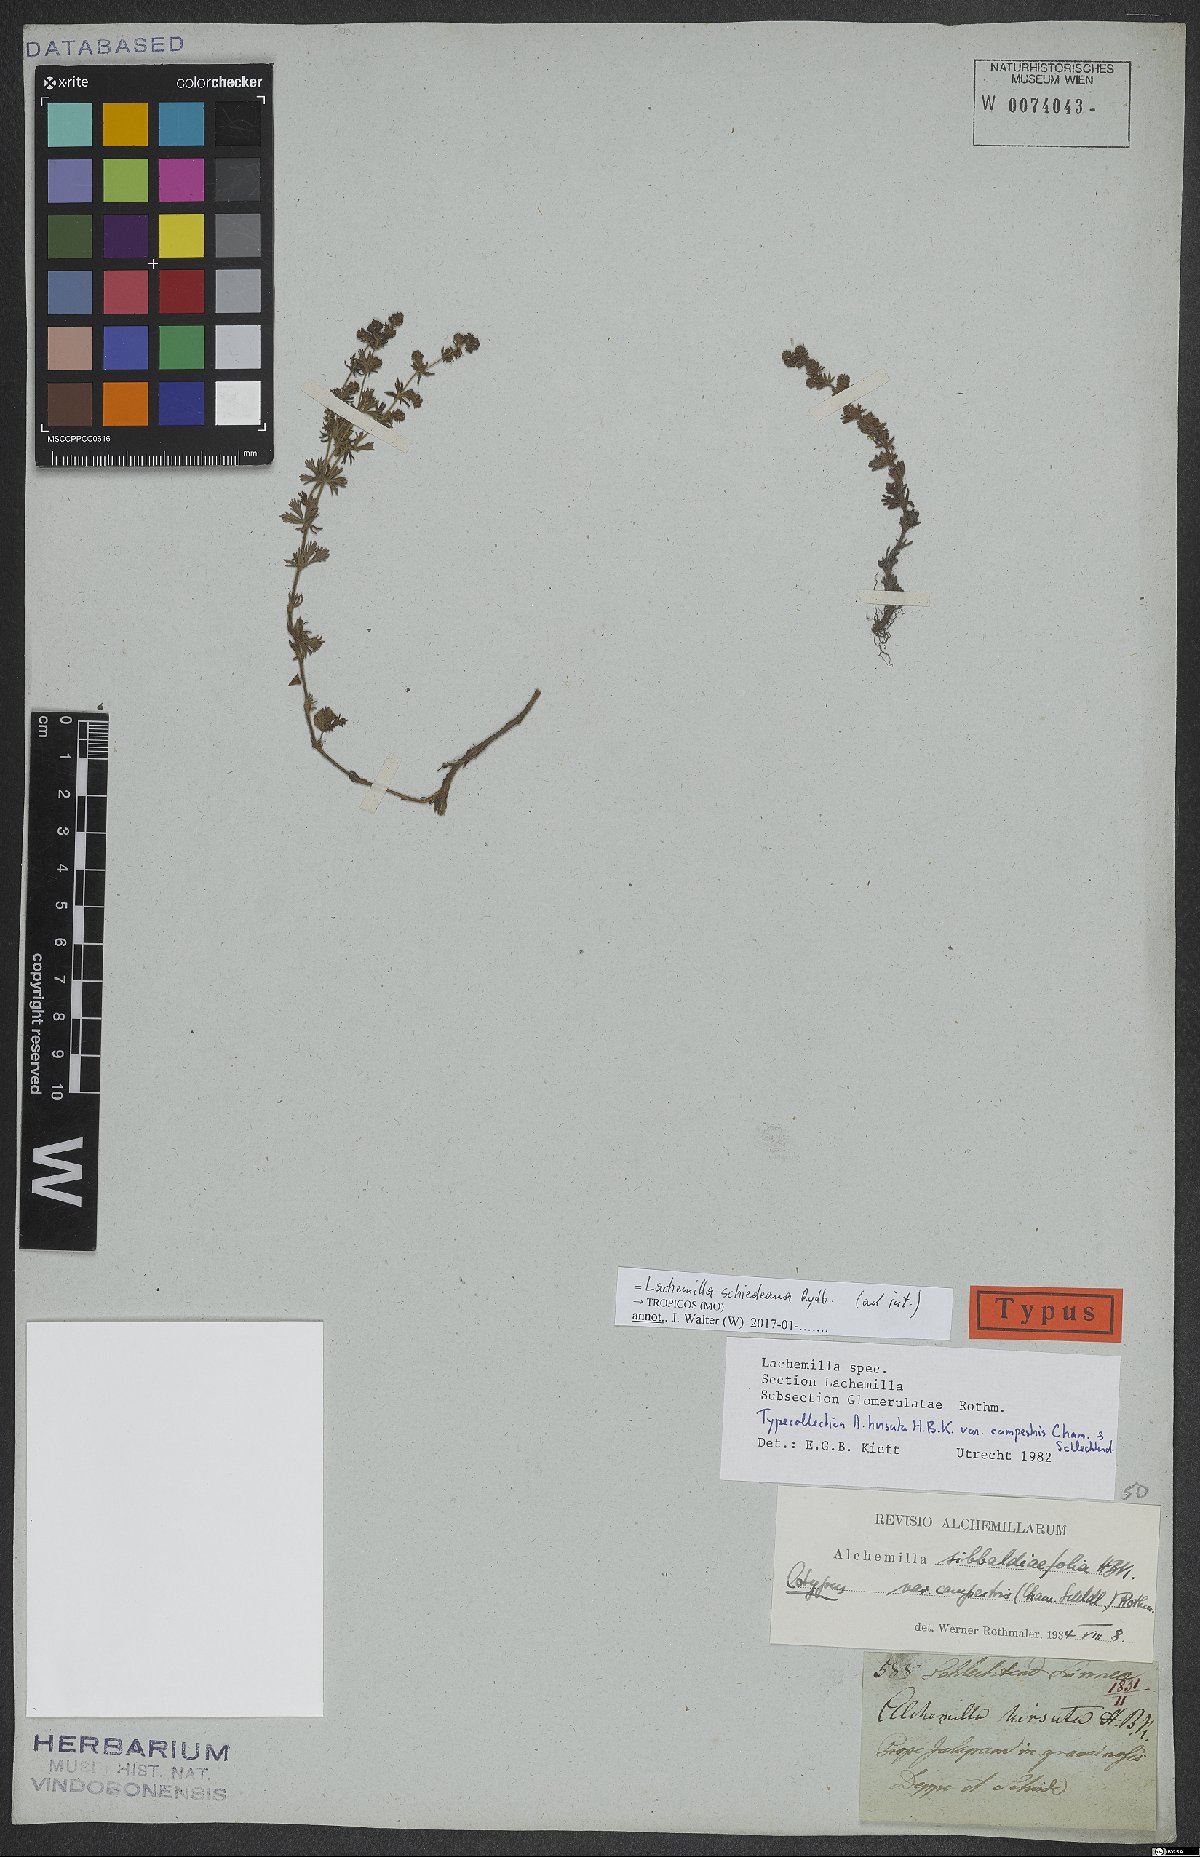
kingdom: Plantae
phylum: Tracheophyta
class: Magnoliopsida
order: Rosales
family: Rosaceae
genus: Lachemilla
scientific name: Lachemilla sibbaldiifolia
